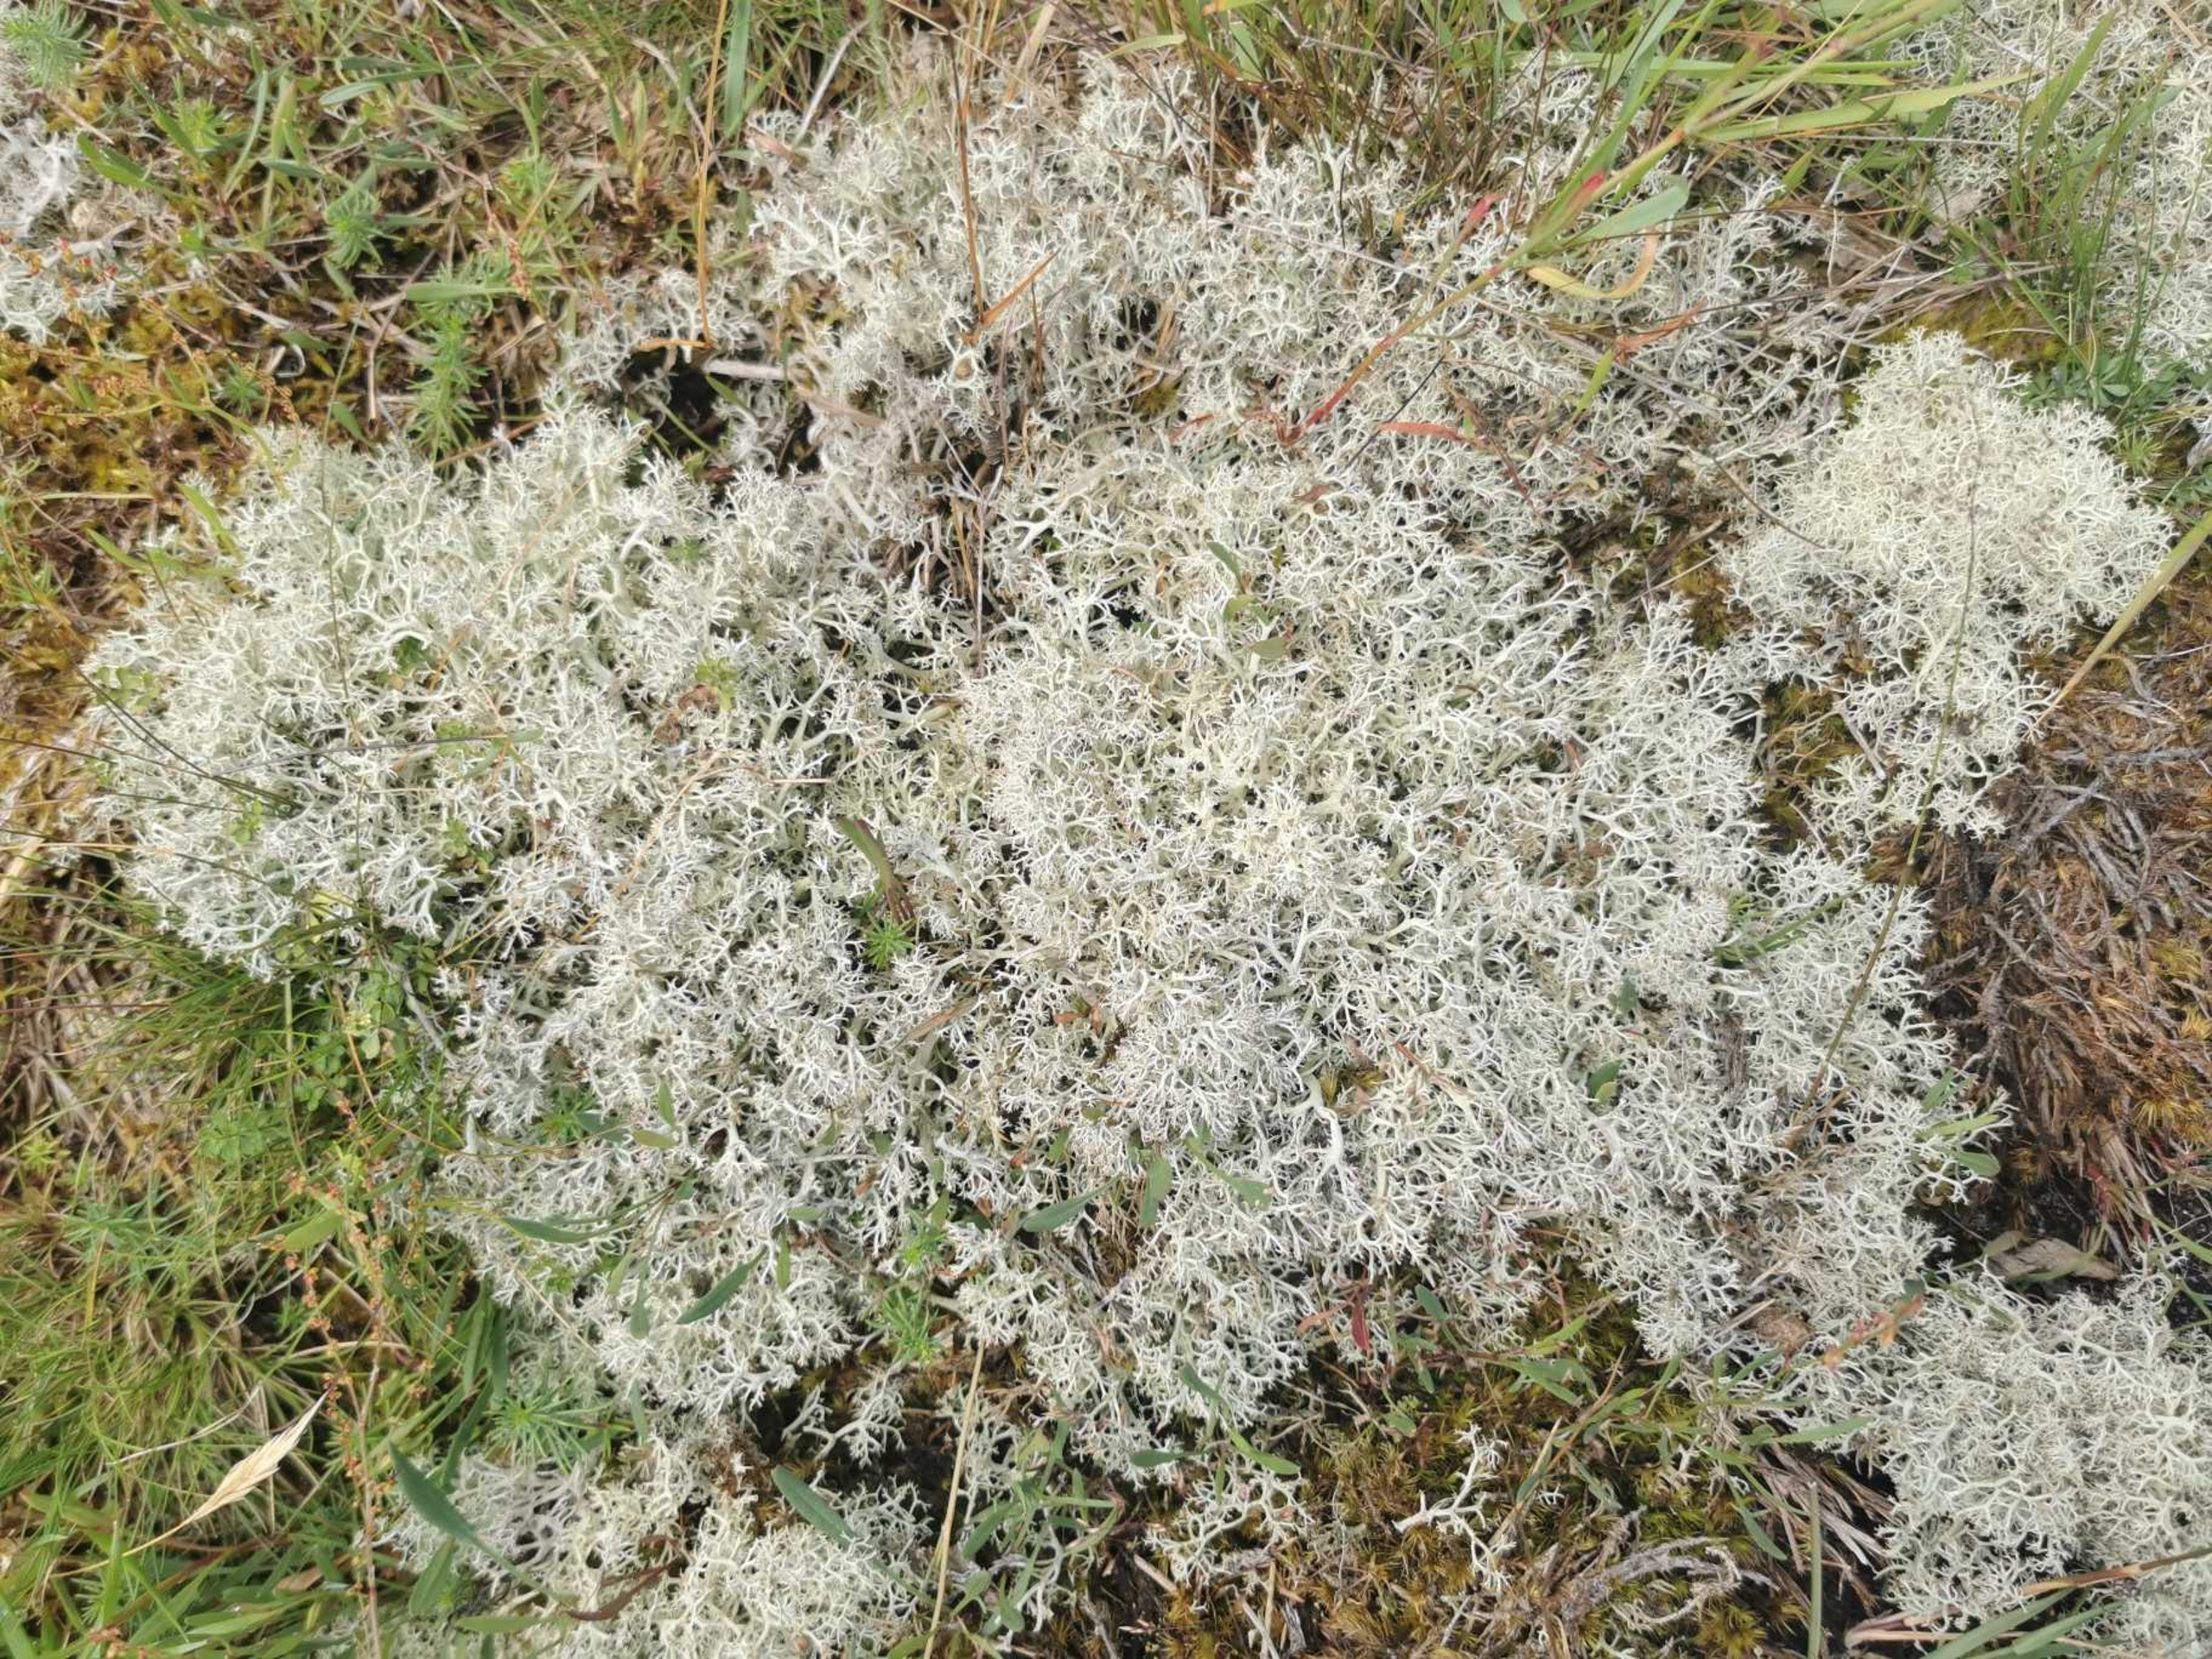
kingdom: Fungi
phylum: Ascomycota
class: Lecanoromycetes
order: Lecanorales
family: Cladoniaceae
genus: Cladonia
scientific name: Cladonia portentosa
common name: Hede-rensdyrlav
